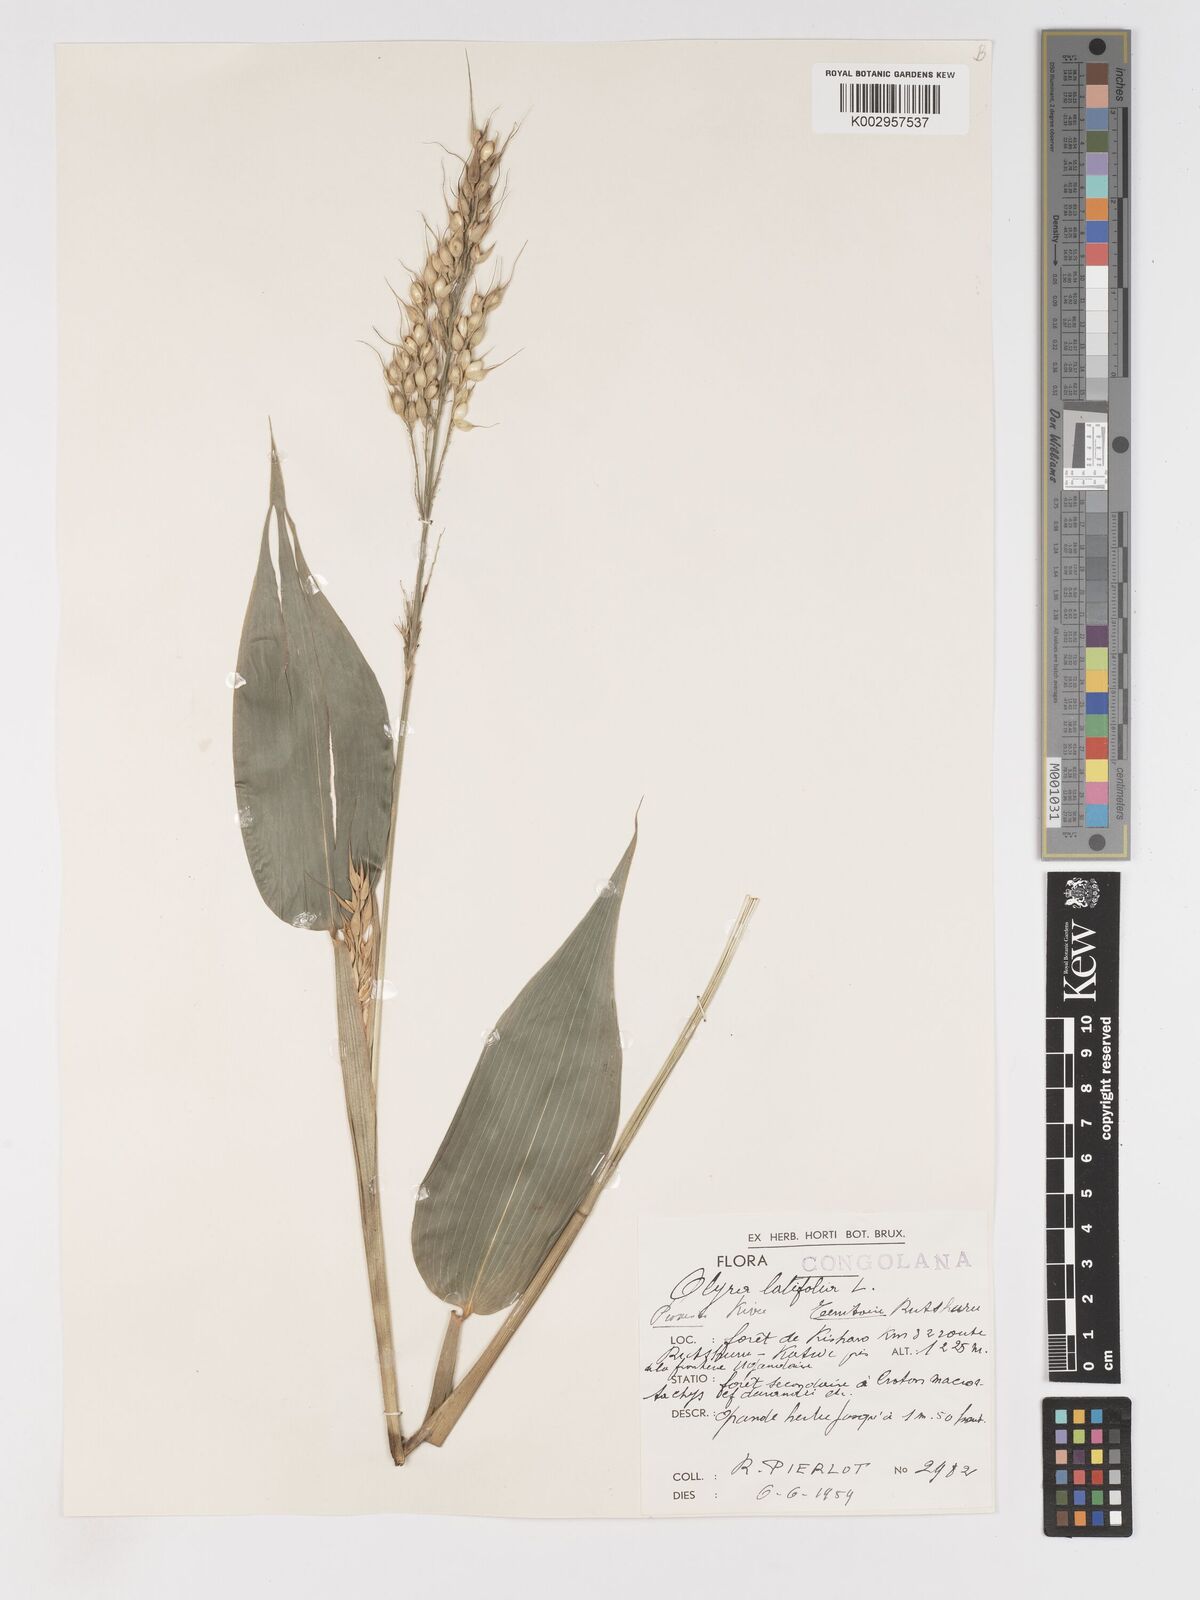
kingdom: Plantae
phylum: Tracheophyta
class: Liliopsida
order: Poales
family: Poaceae
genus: Olyra
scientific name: Olyra latifolia
